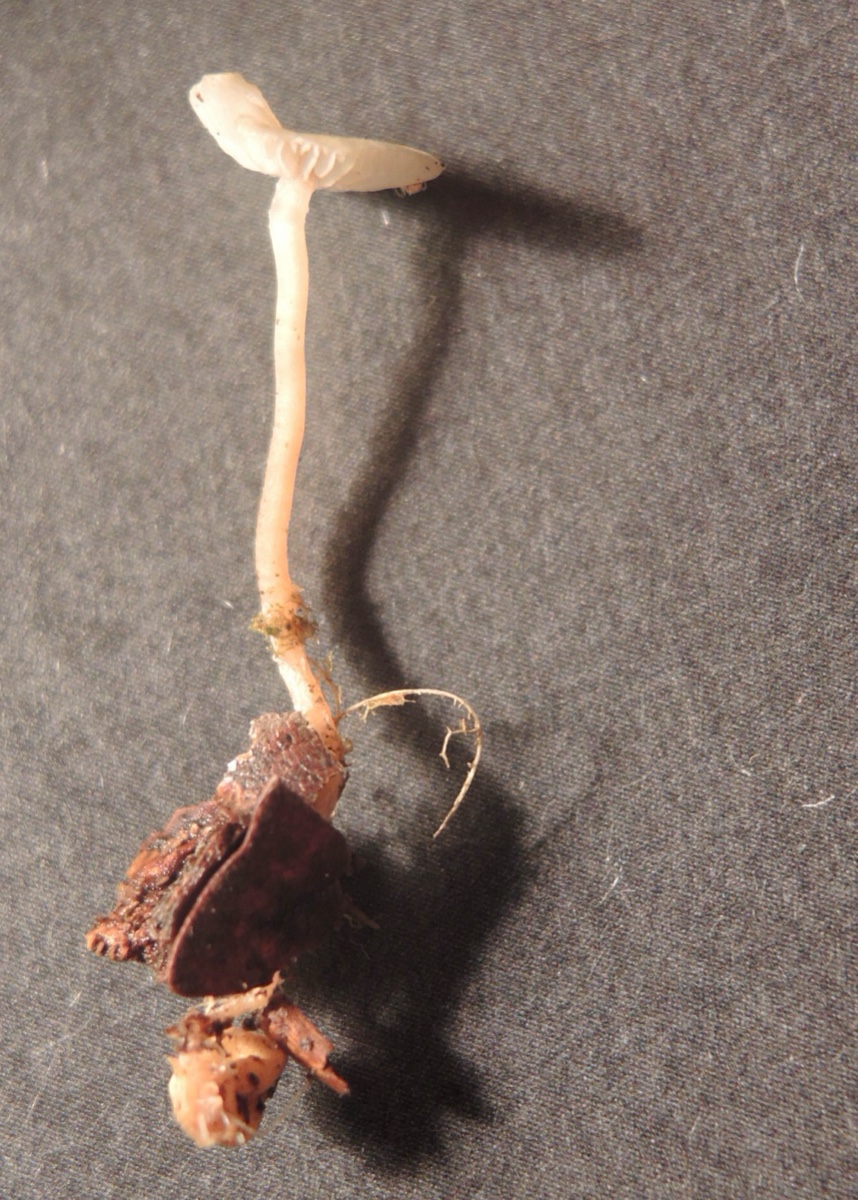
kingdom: Fungi
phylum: Basidiomycota
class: Agaricomycetes
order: Agaricales
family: Tricholomataceae
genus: Collybia
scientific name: Collybia cookei
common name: gulknoldet lighat
